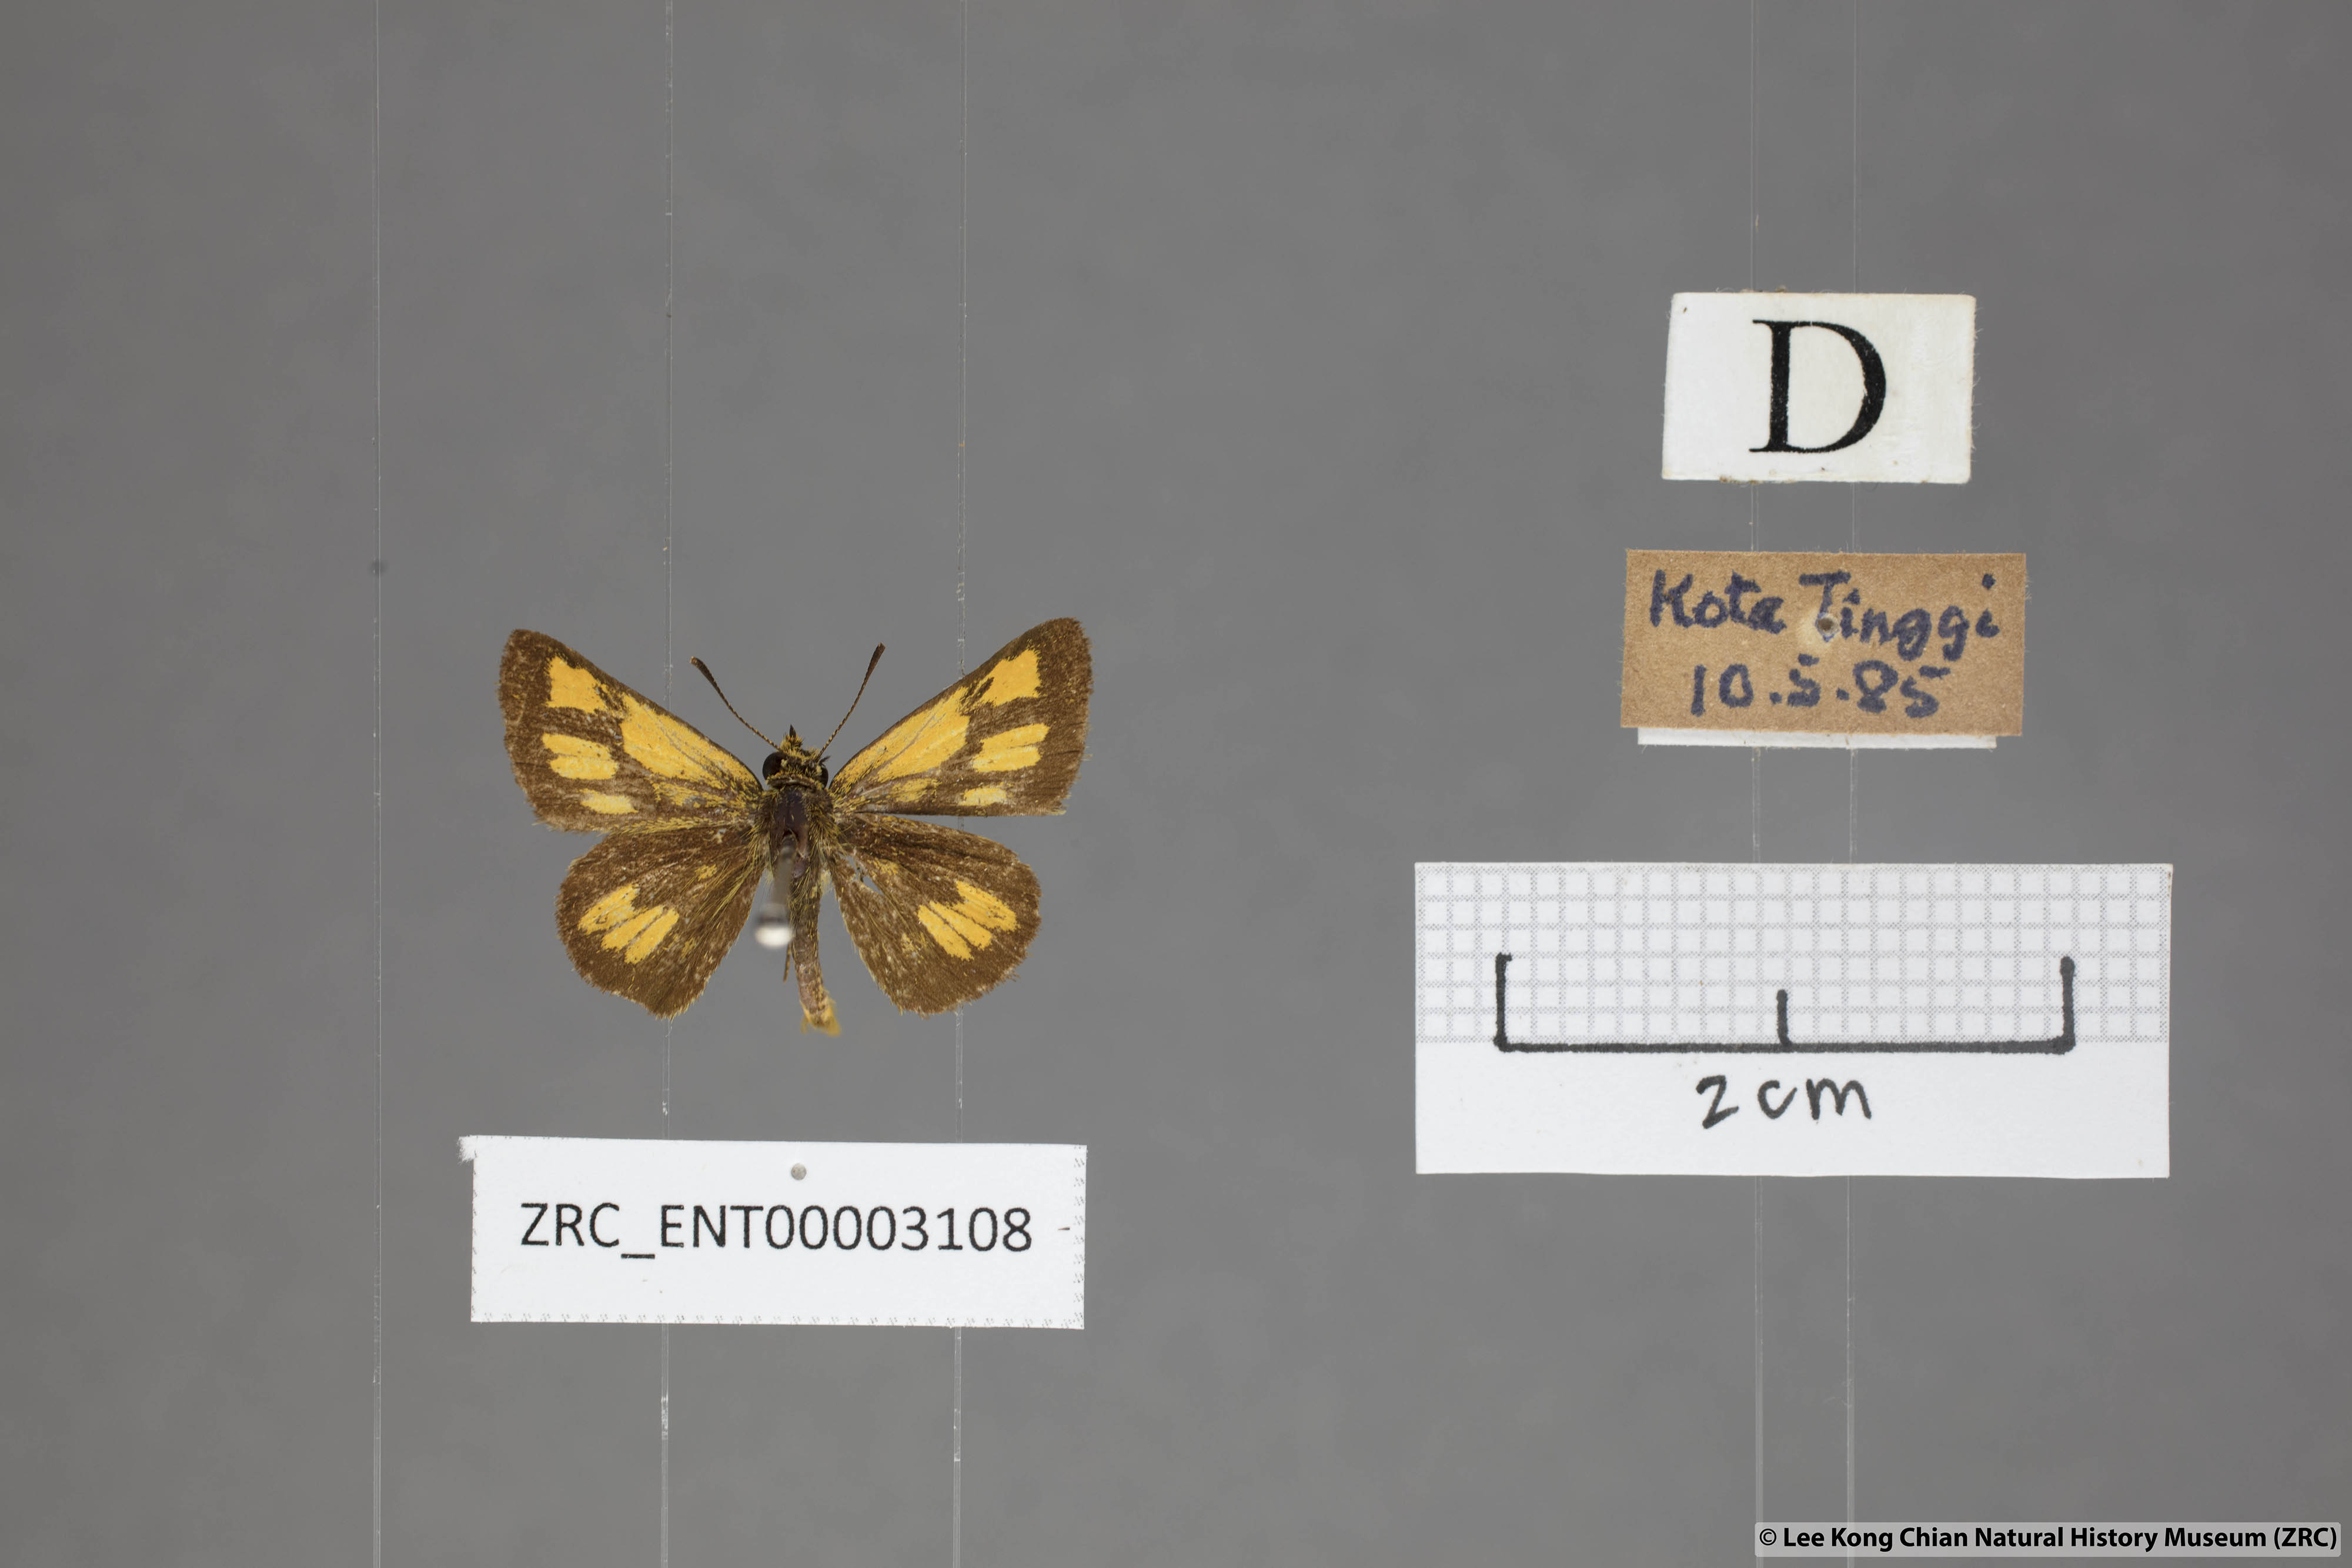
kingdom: Animalia
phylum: Arthropoda
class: Insecta
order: Lepidoptera
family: Hesperiidae
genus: Ampittia
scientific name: Ampittia dioscorides
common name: Common bush hopper
